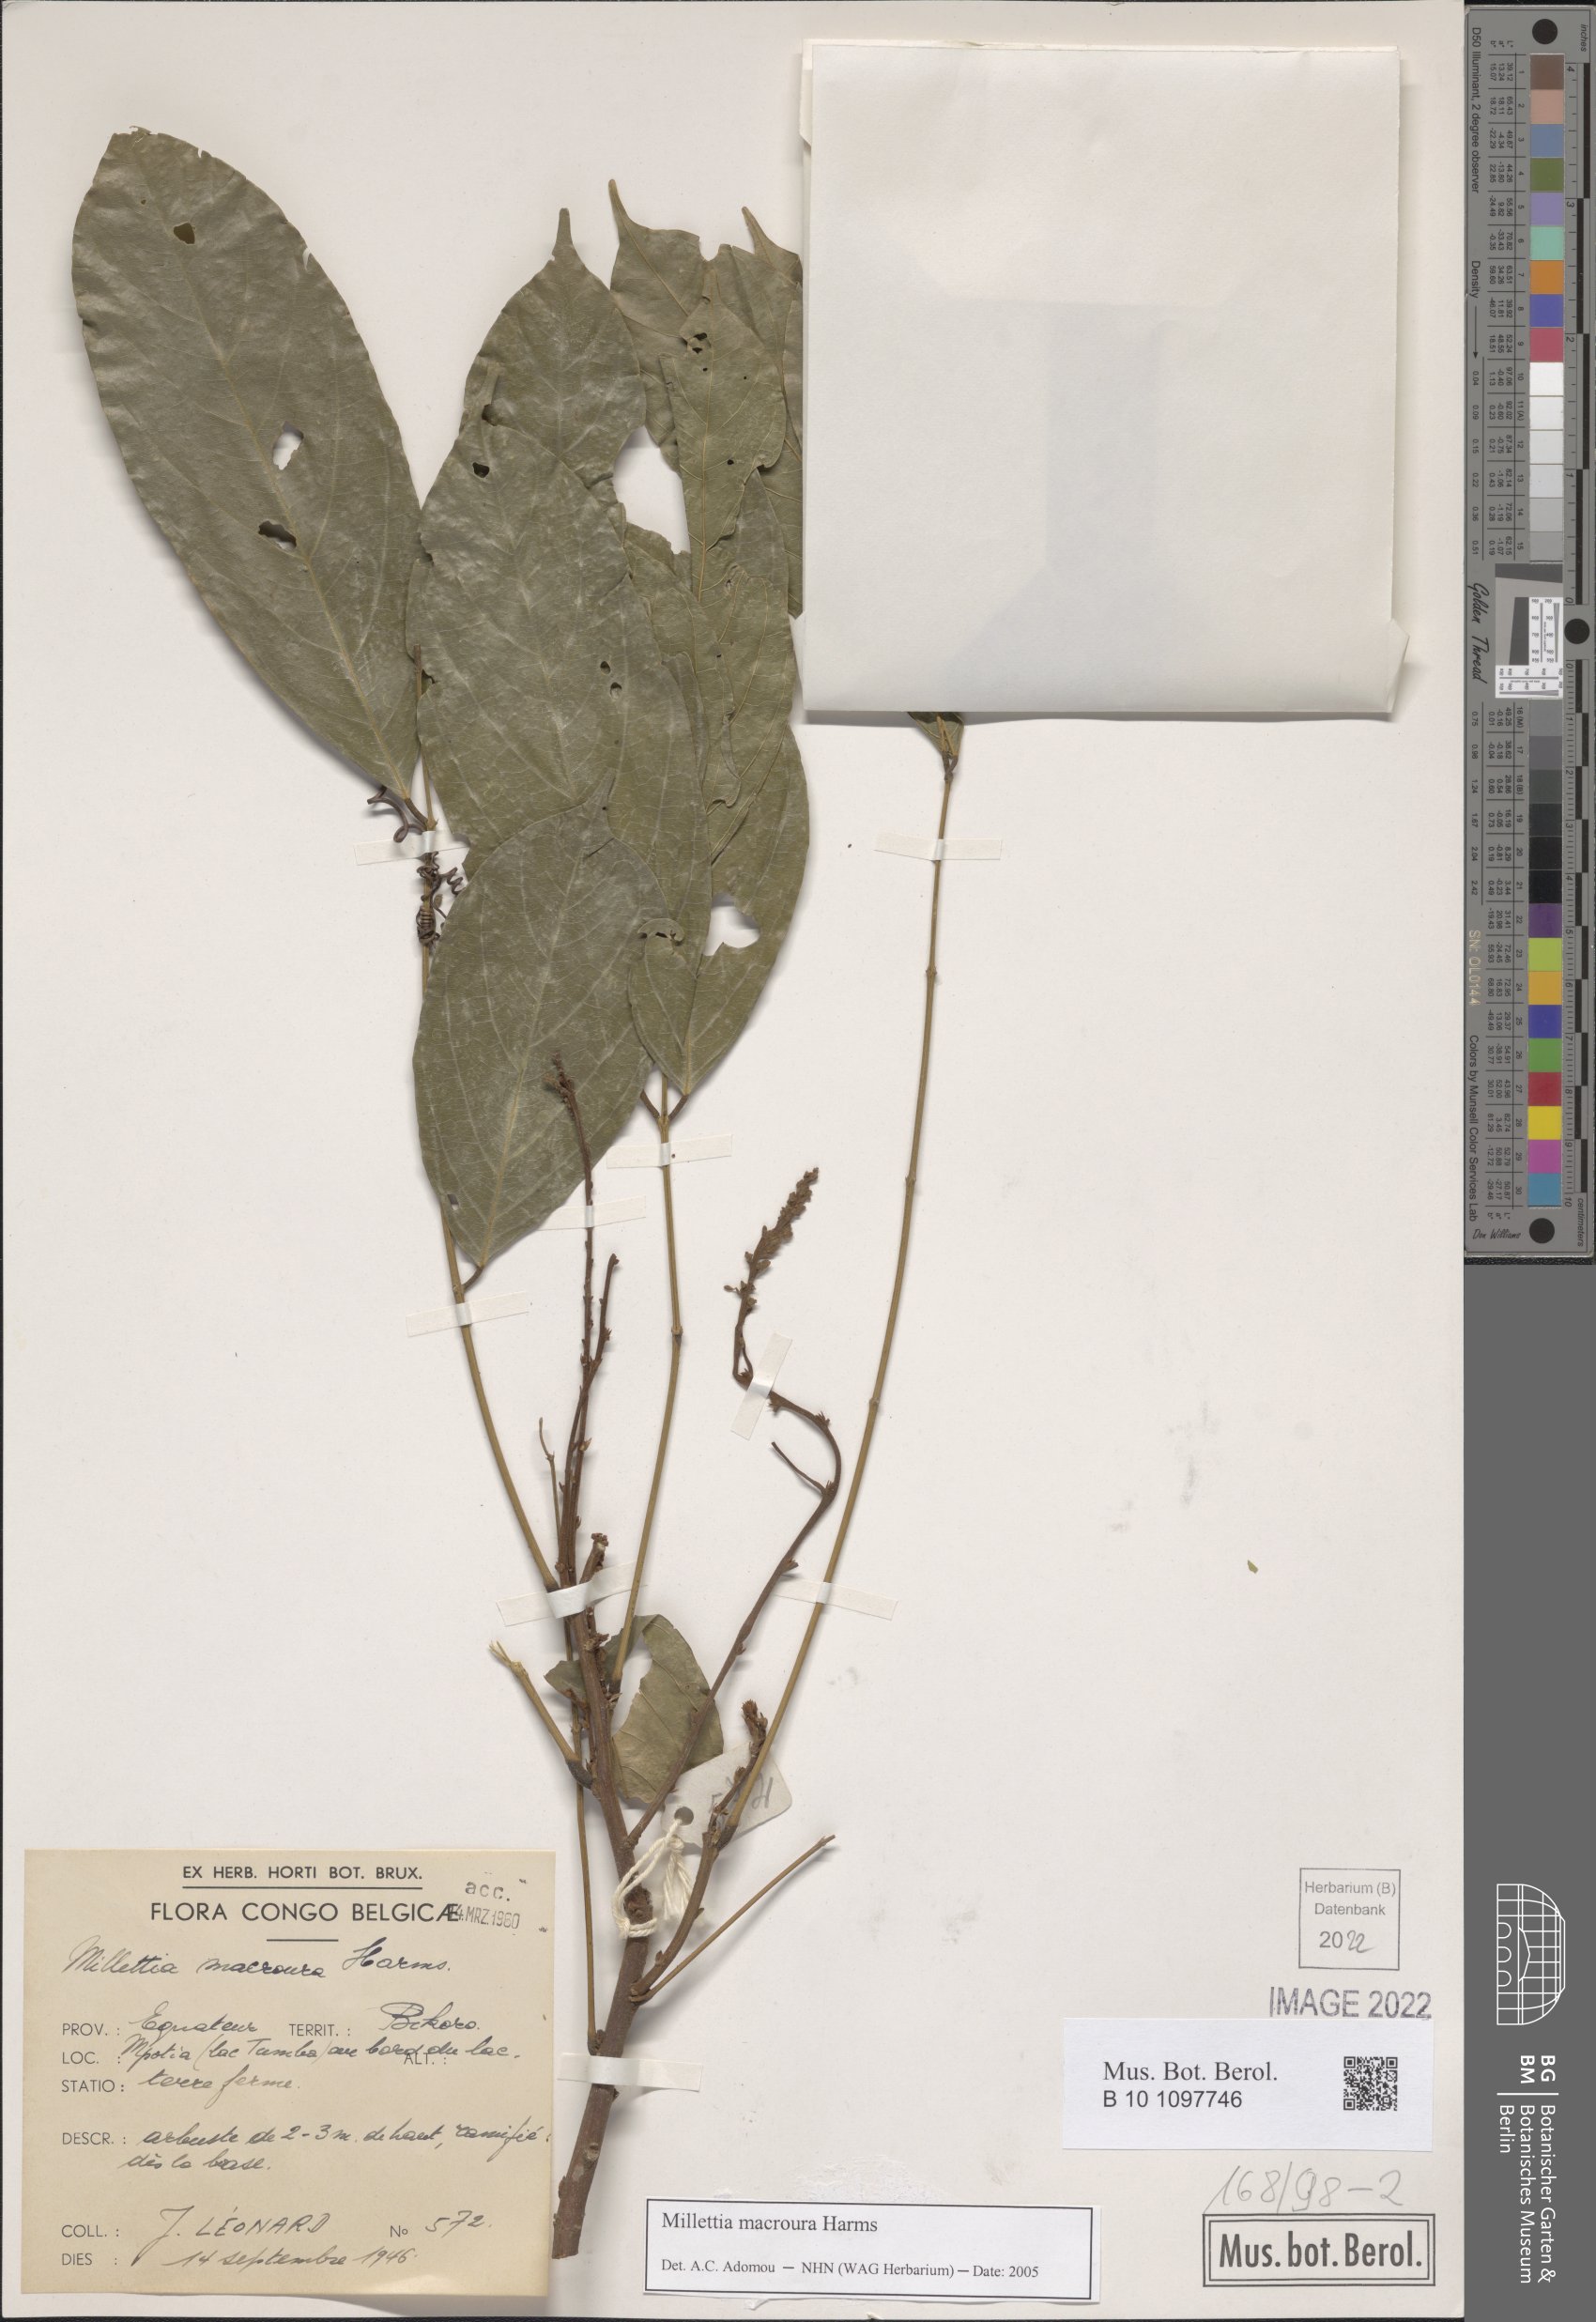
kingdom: Plantae
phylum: Tracheophyta
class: Magnoliopsida
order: Fabales
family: Fabaceae
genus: Millettia
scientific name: Millettia macroura
